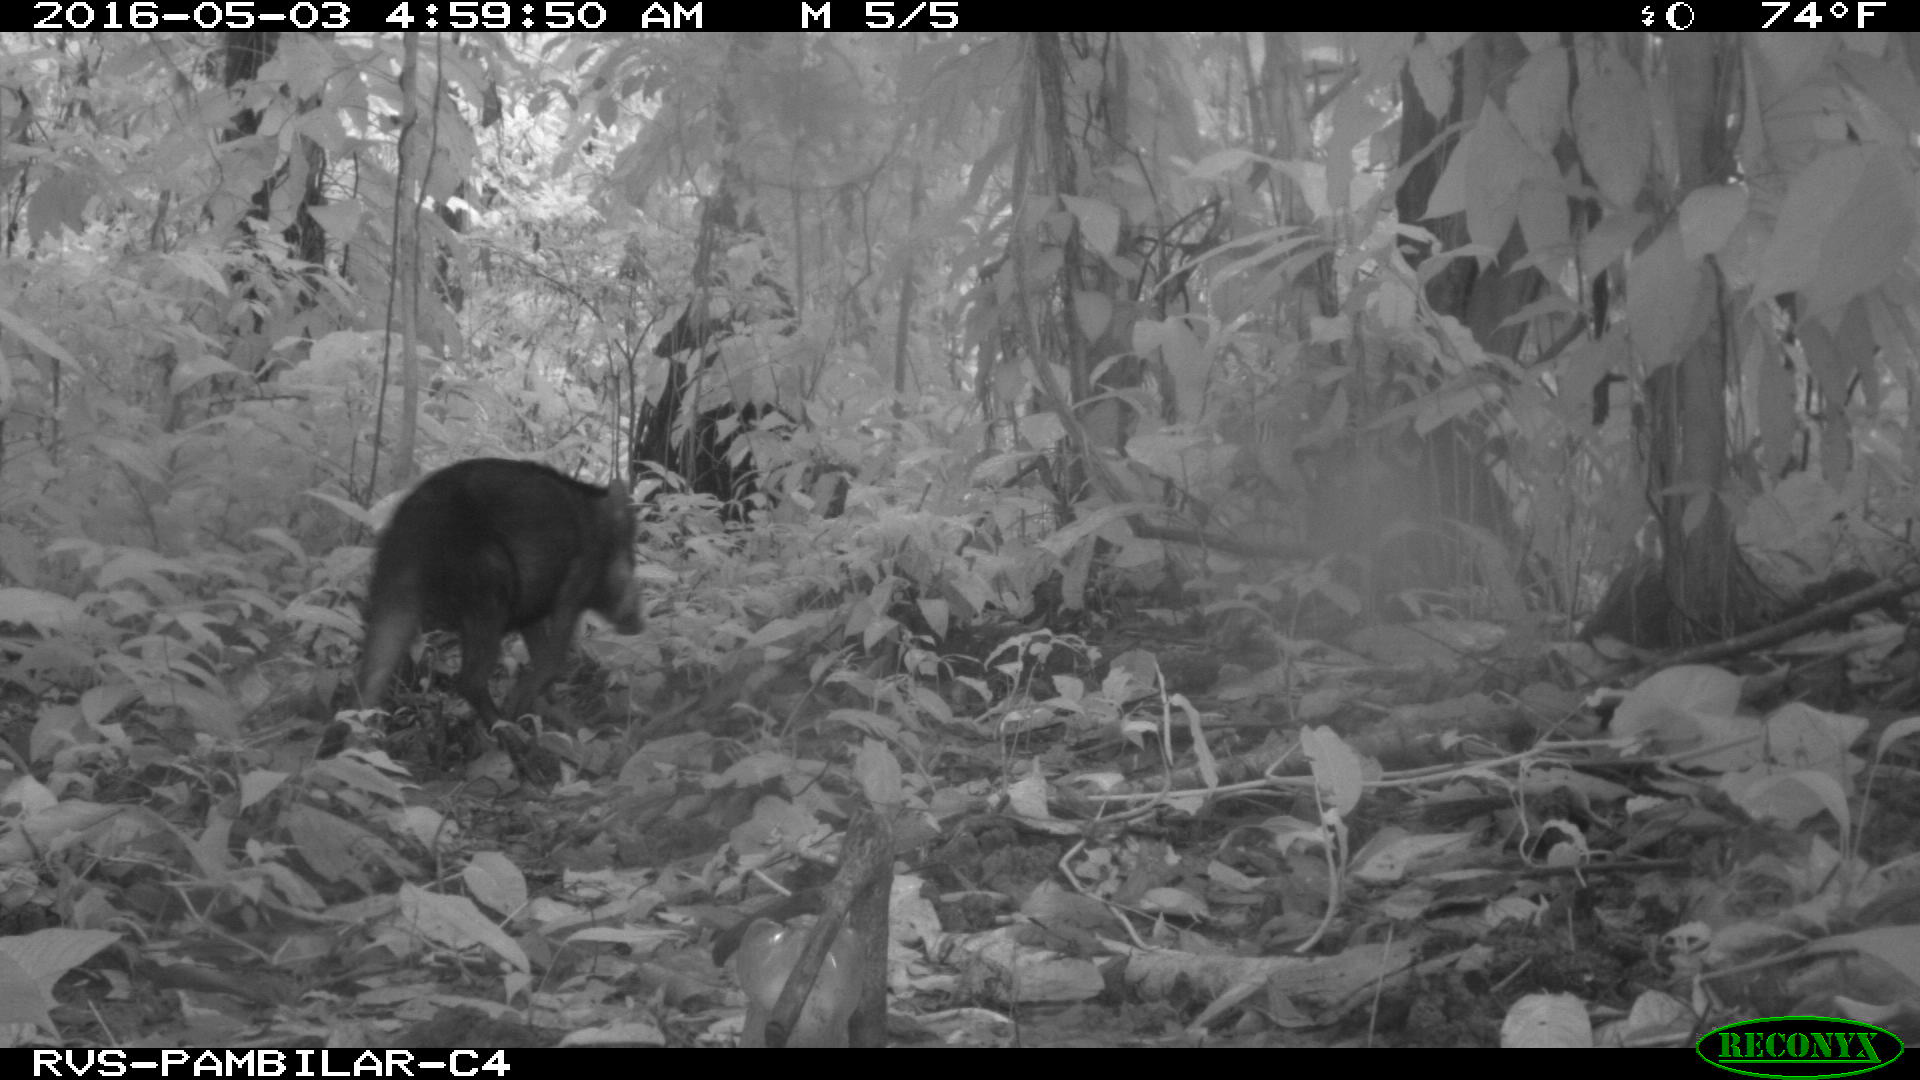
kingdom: Animalia
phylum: Chordata
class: Mammalia
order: Artiodactyla
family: Tayassuidae
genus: Tayassu
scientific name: Tayassu pecari
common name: White-lipped peccary
